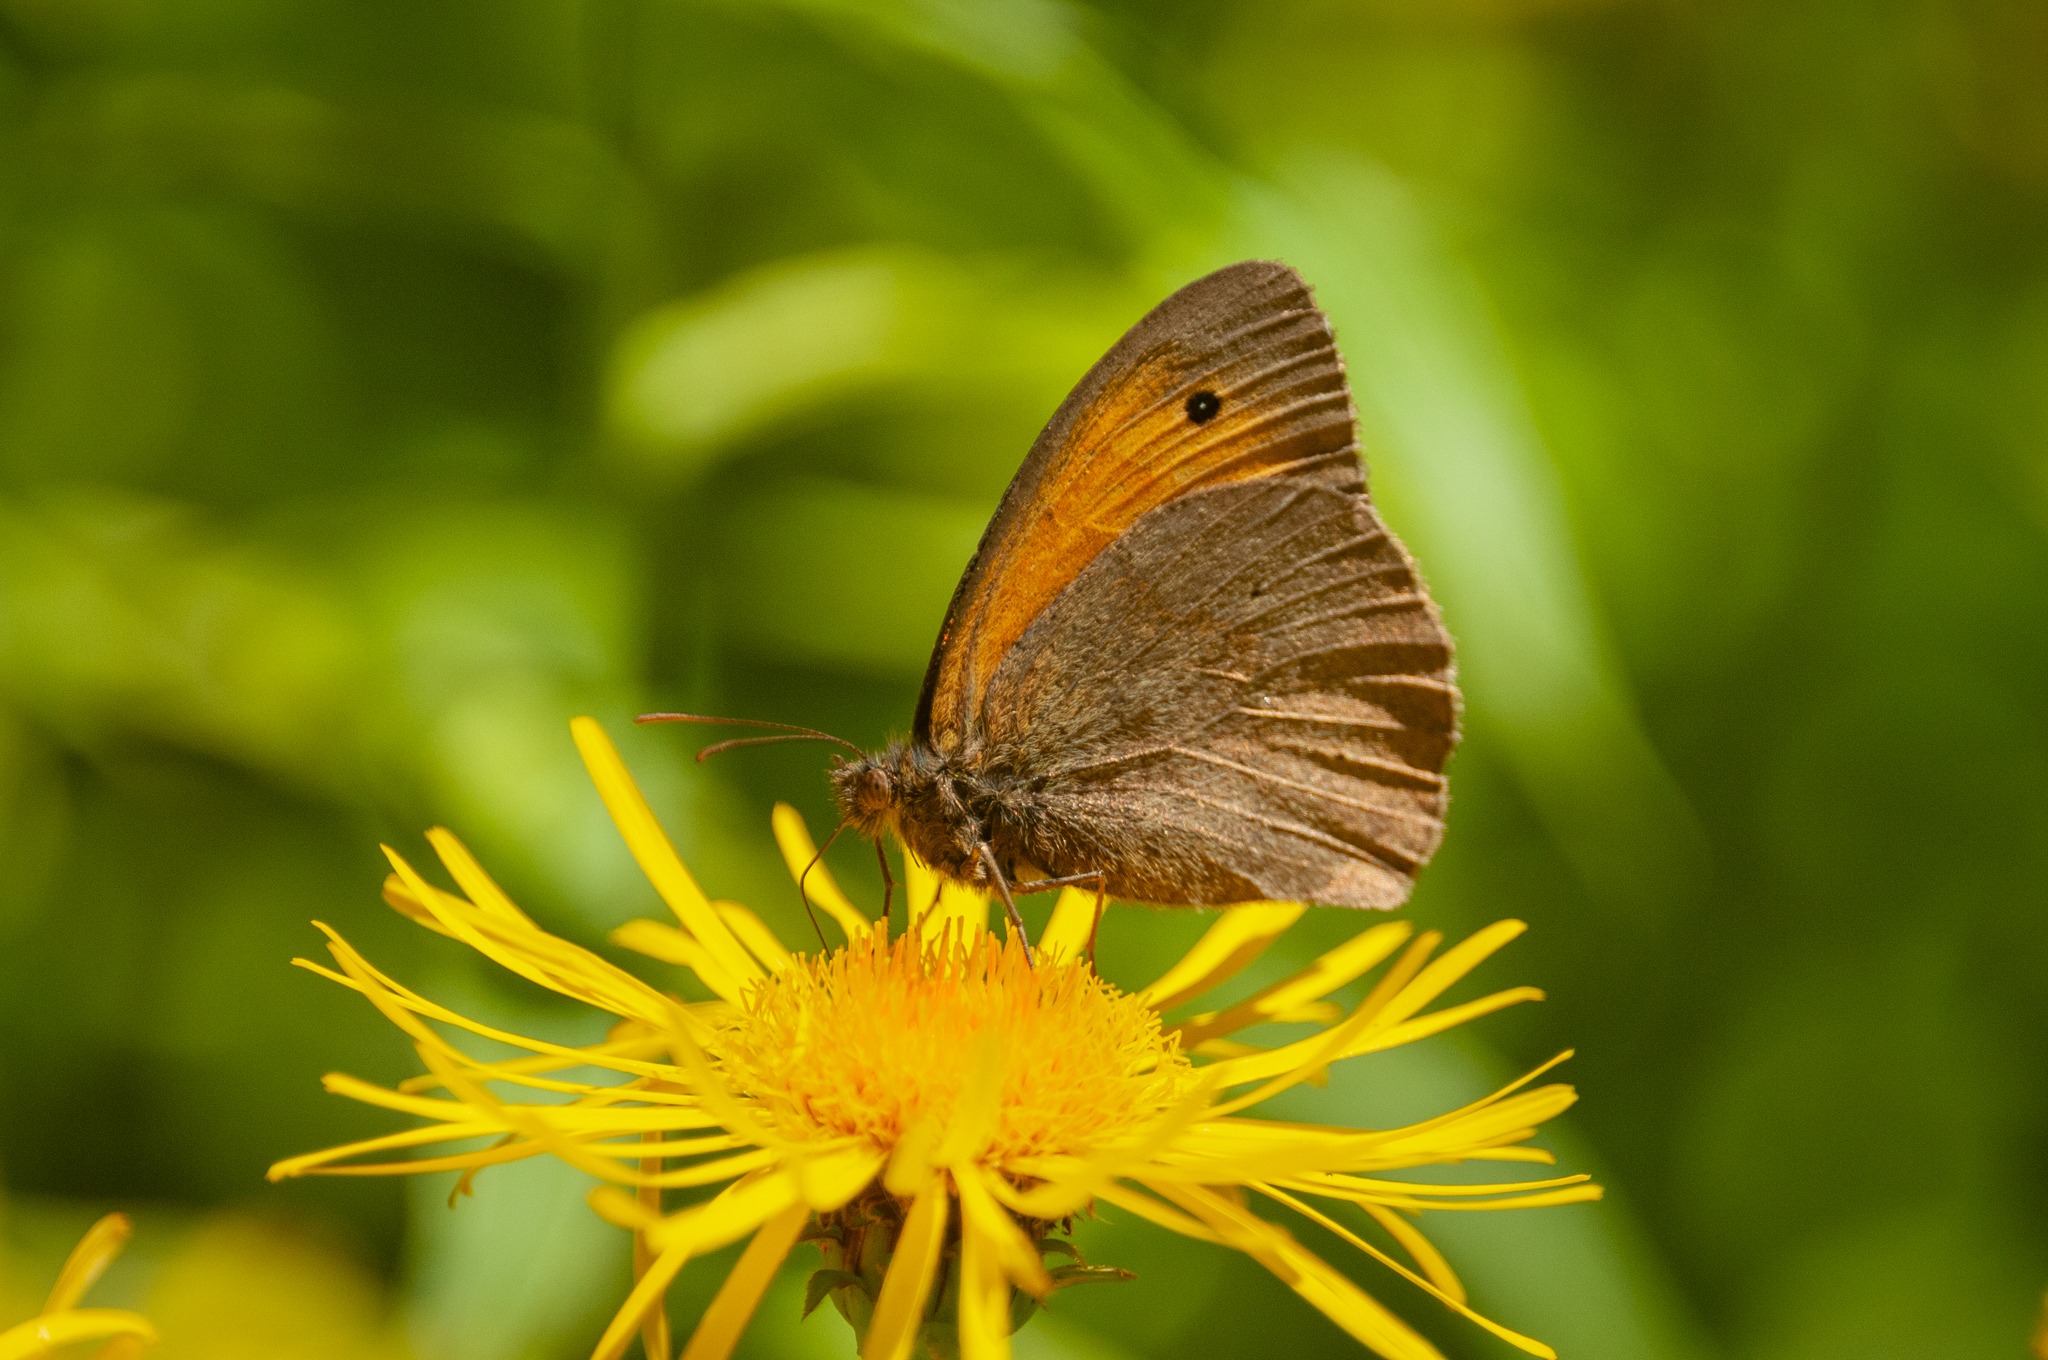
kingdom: Animalia
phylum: Arthropoda
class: Insecta
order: Lepidoptera
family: Nymphalidae
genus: Maniola
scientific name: Maniola jurtina
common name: Græsrandøje
